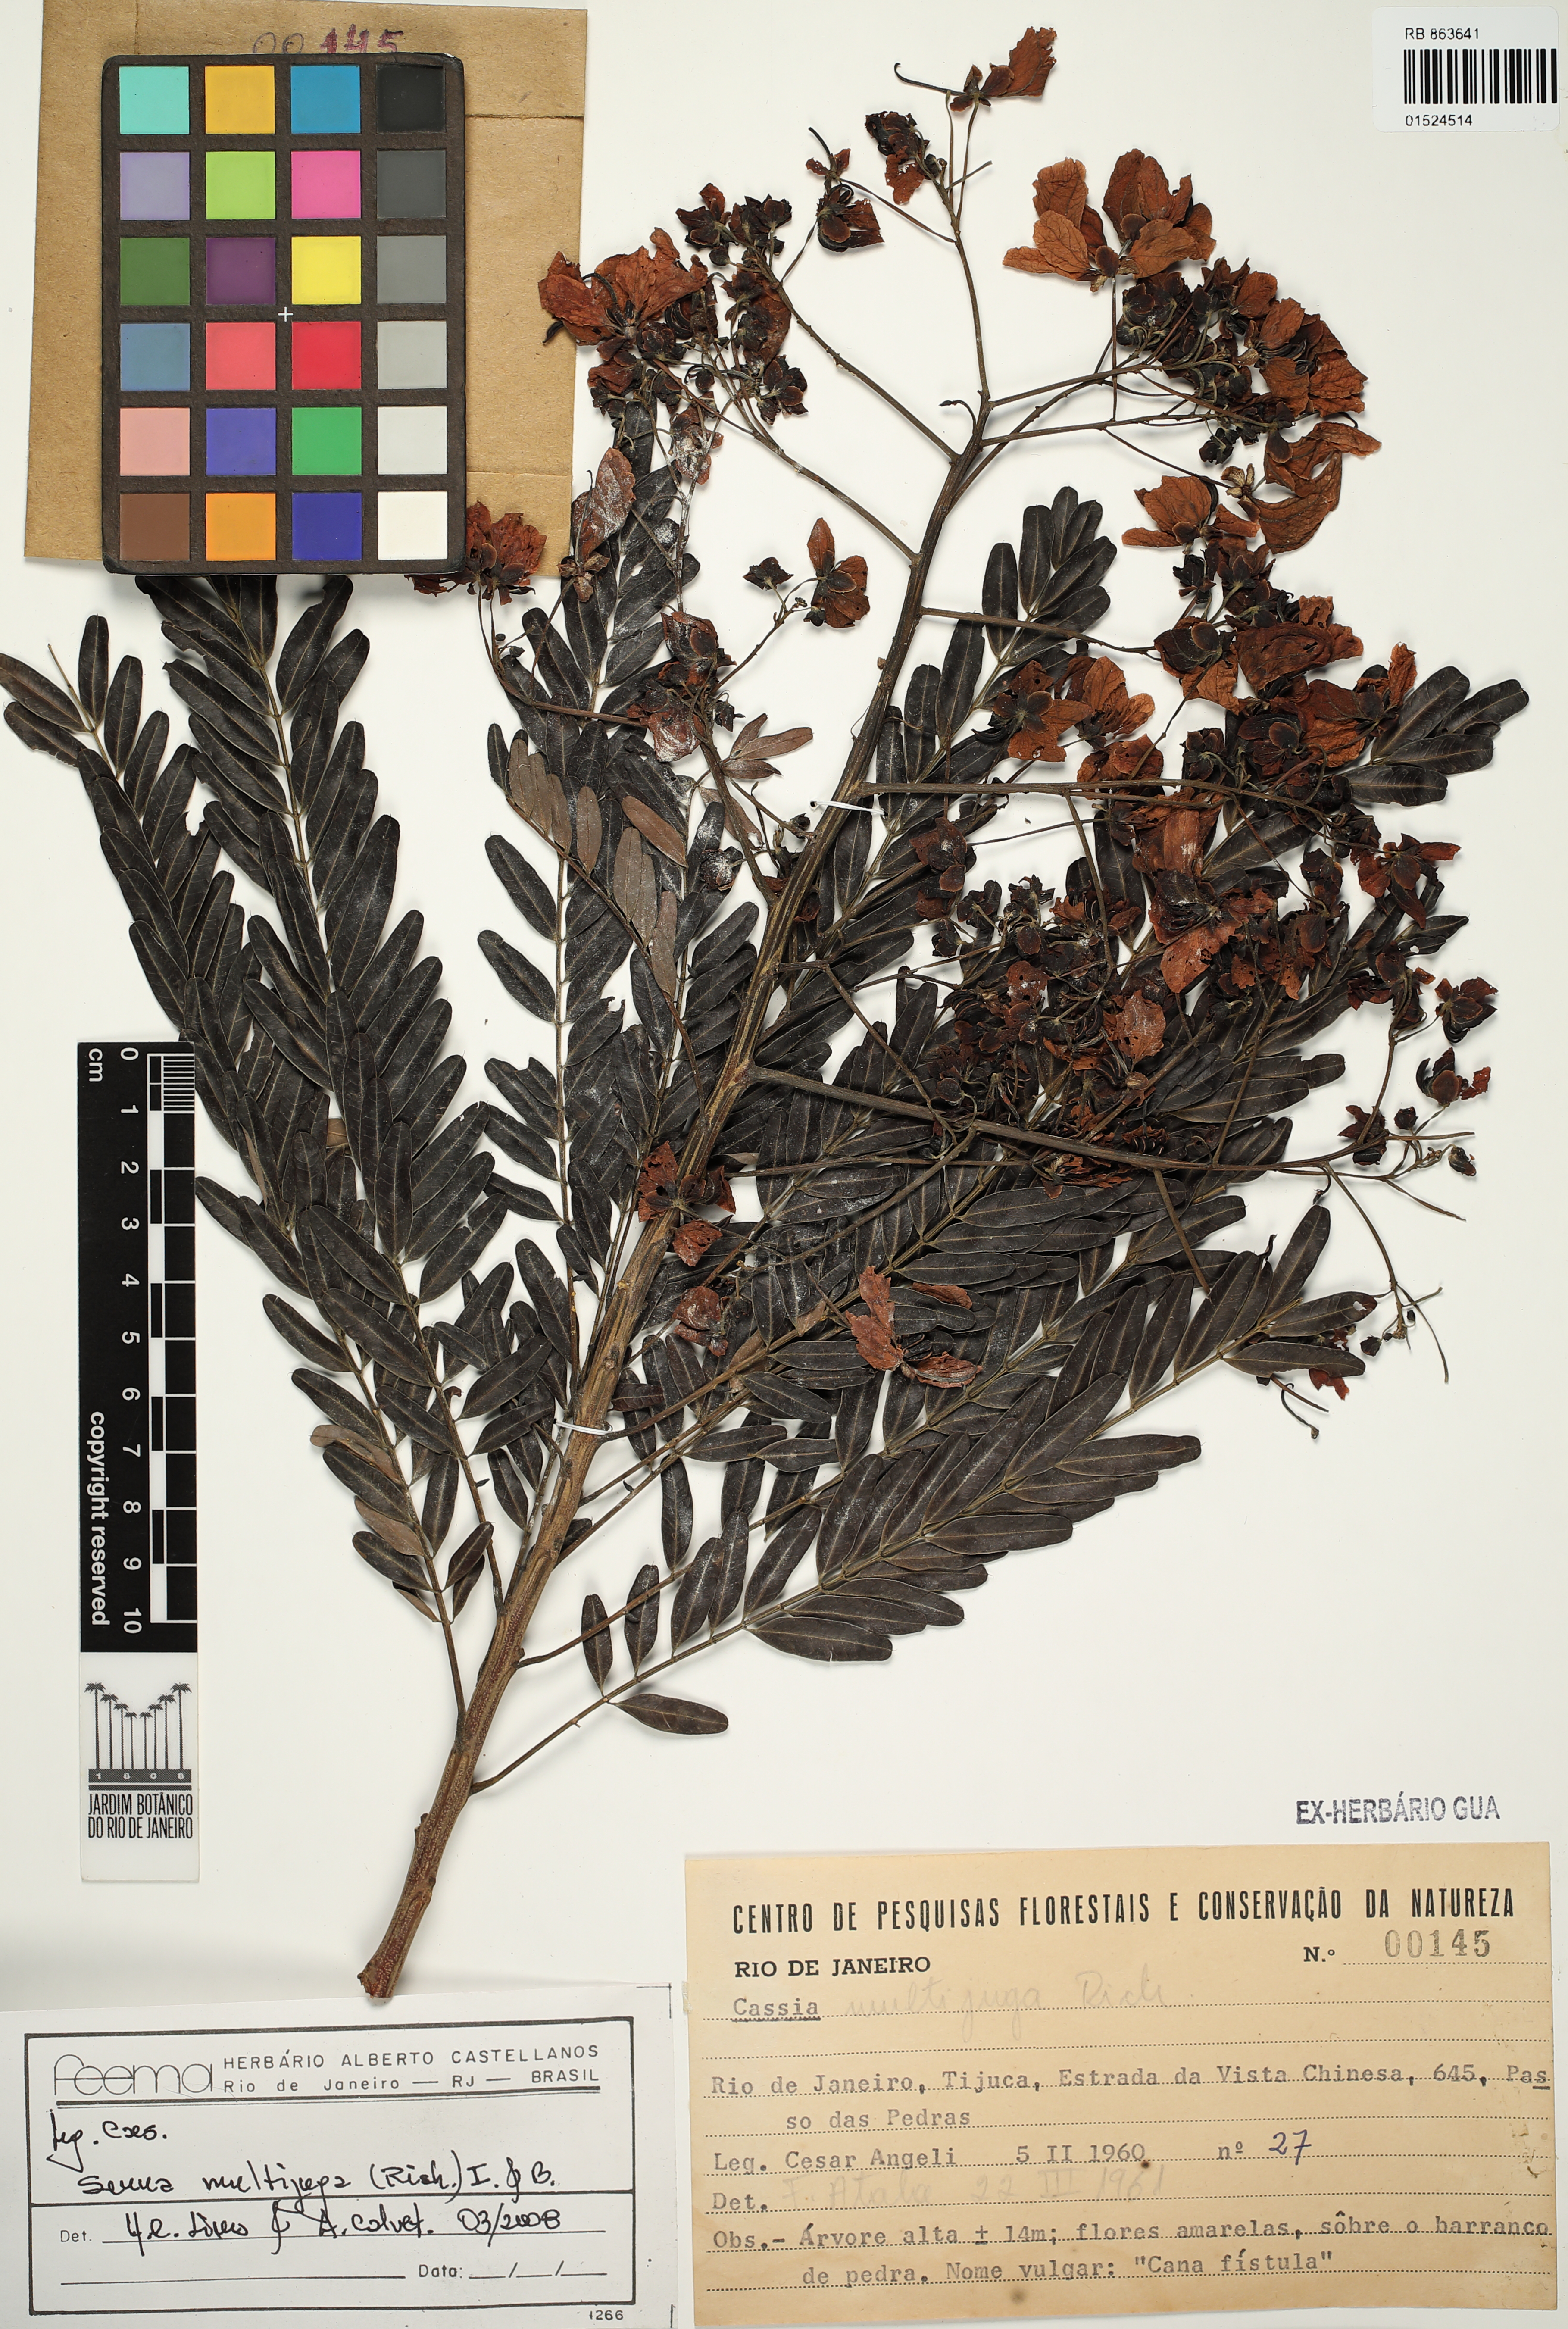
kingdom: Plantae
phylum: Tracheophyta
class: Magnoliopsida
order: Fabales
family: Fabaceae
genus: Senna
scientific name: Senna multijuga
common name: False sicklepod
